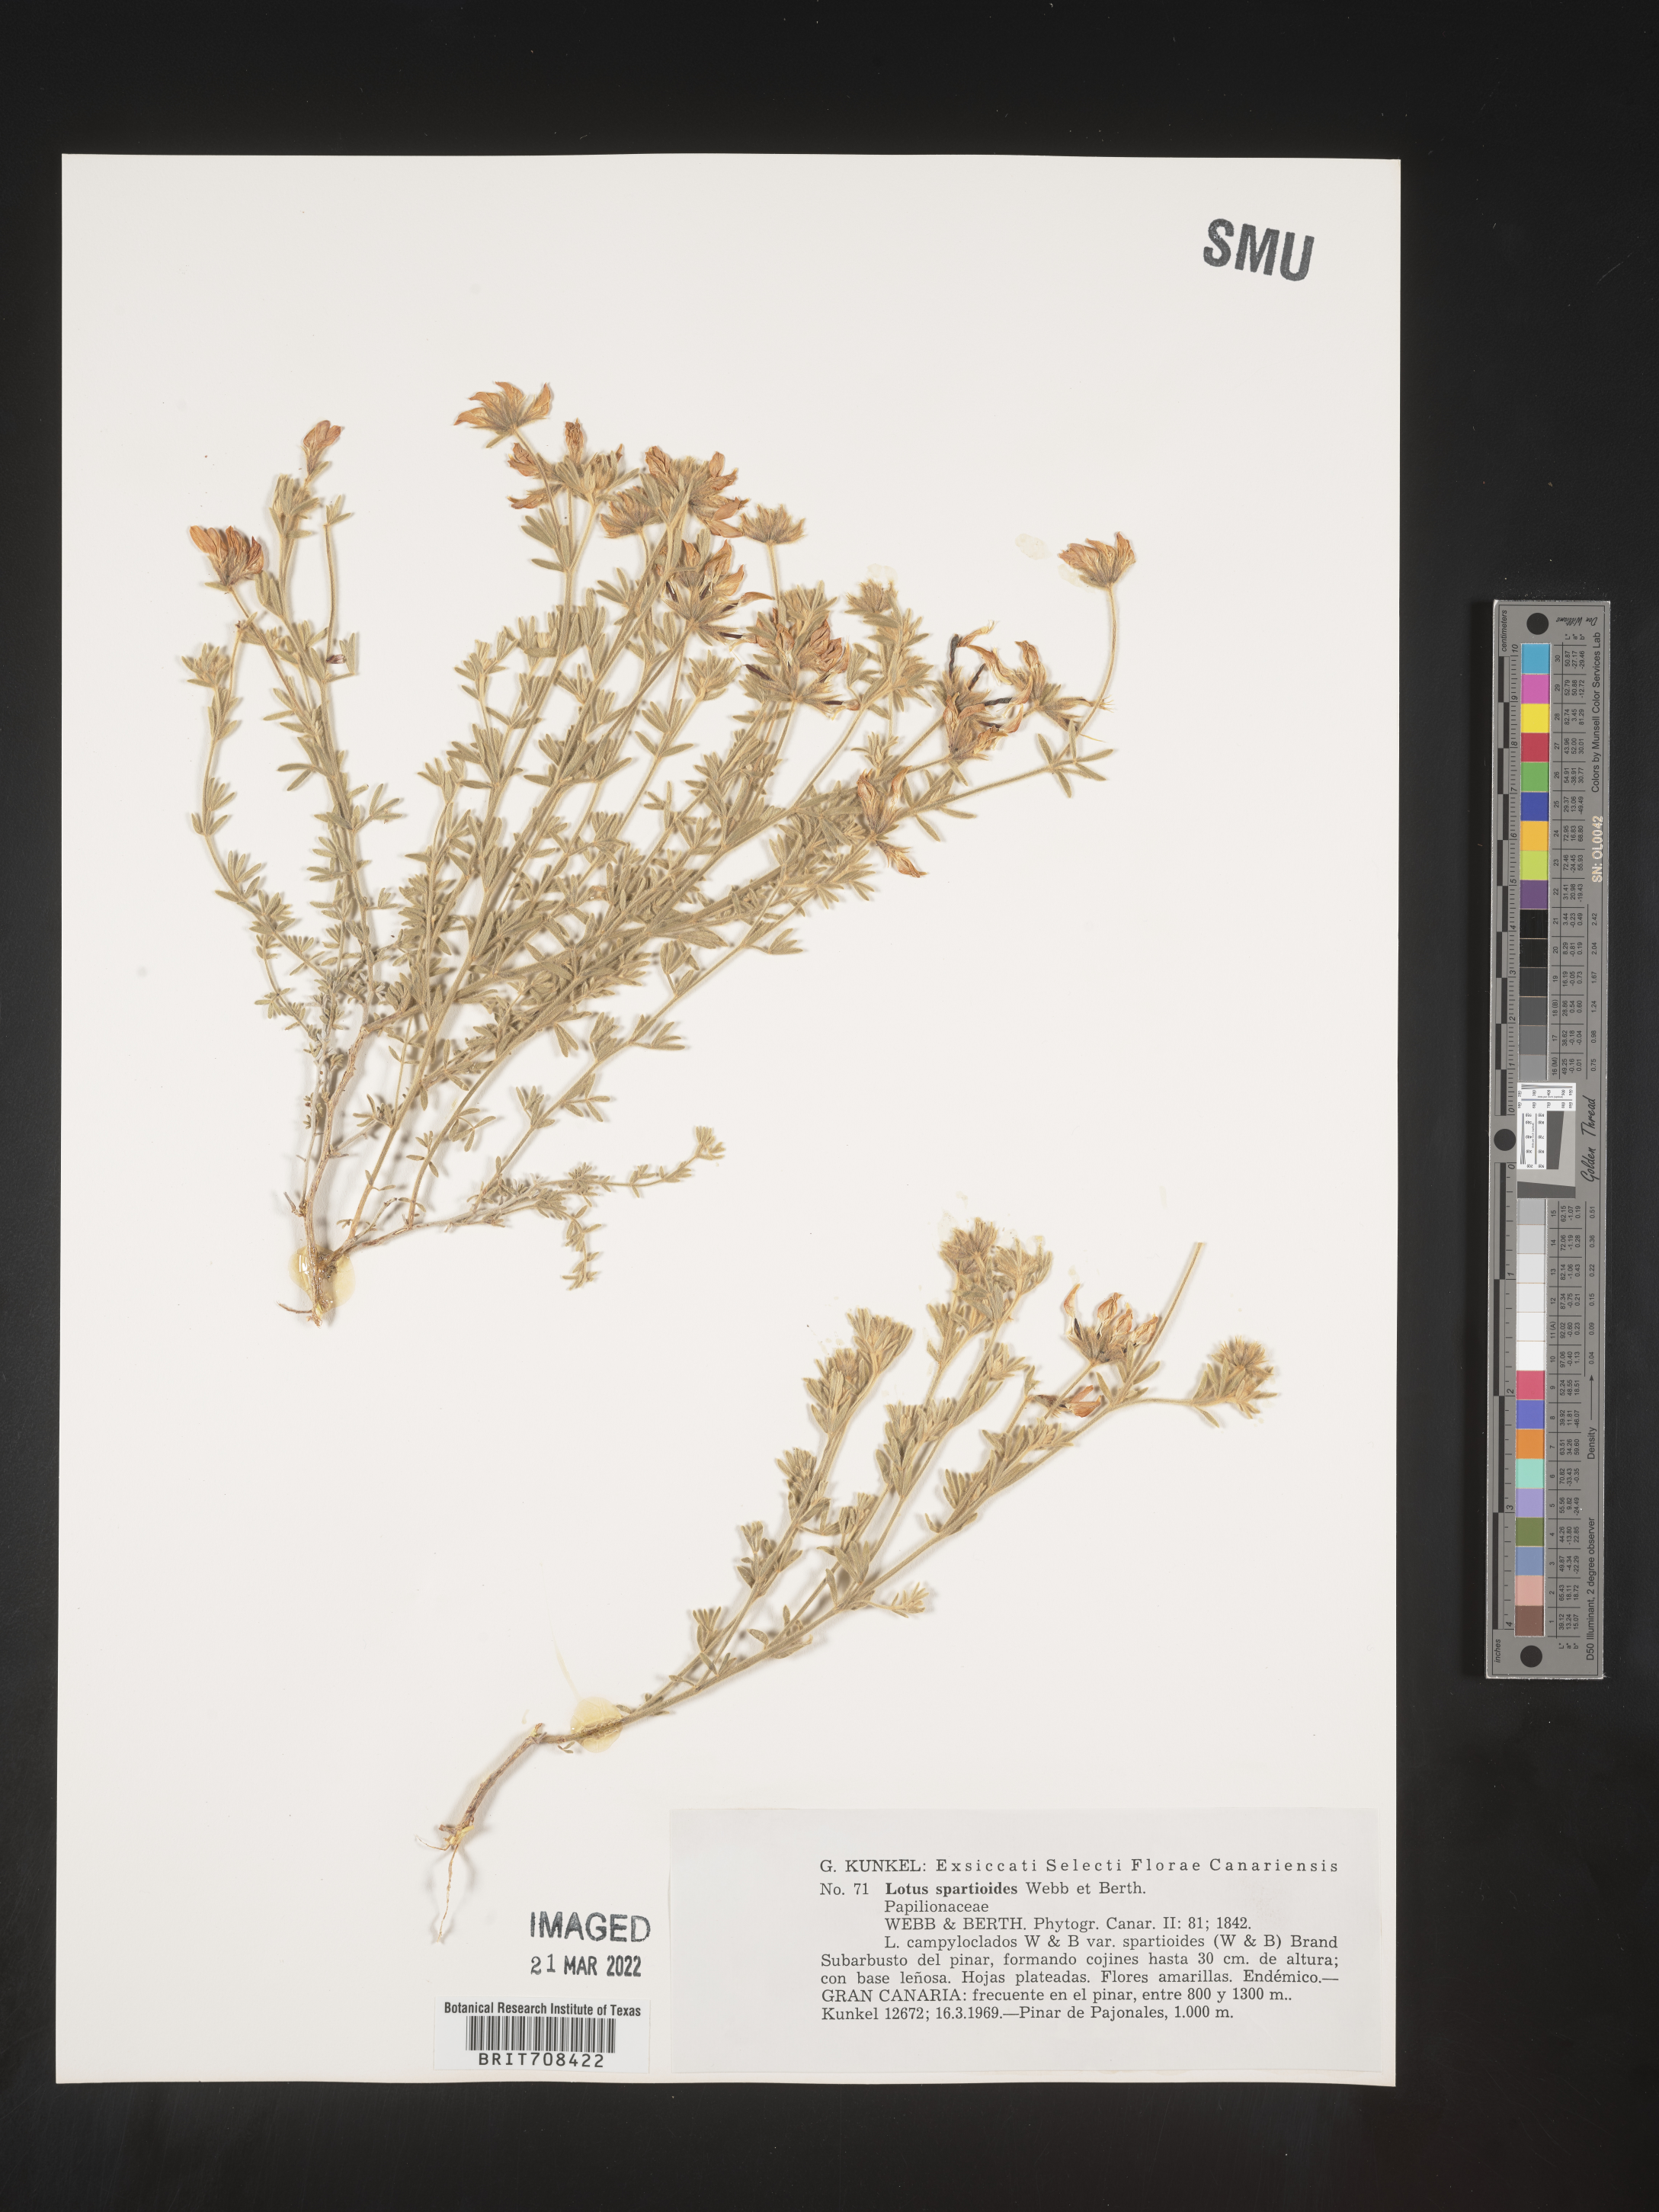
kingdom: Plantae
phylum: Tracheophyta
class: Magnoliopsida
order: Fabales
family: Fabaceae
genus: Lotus
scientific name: Lotus
